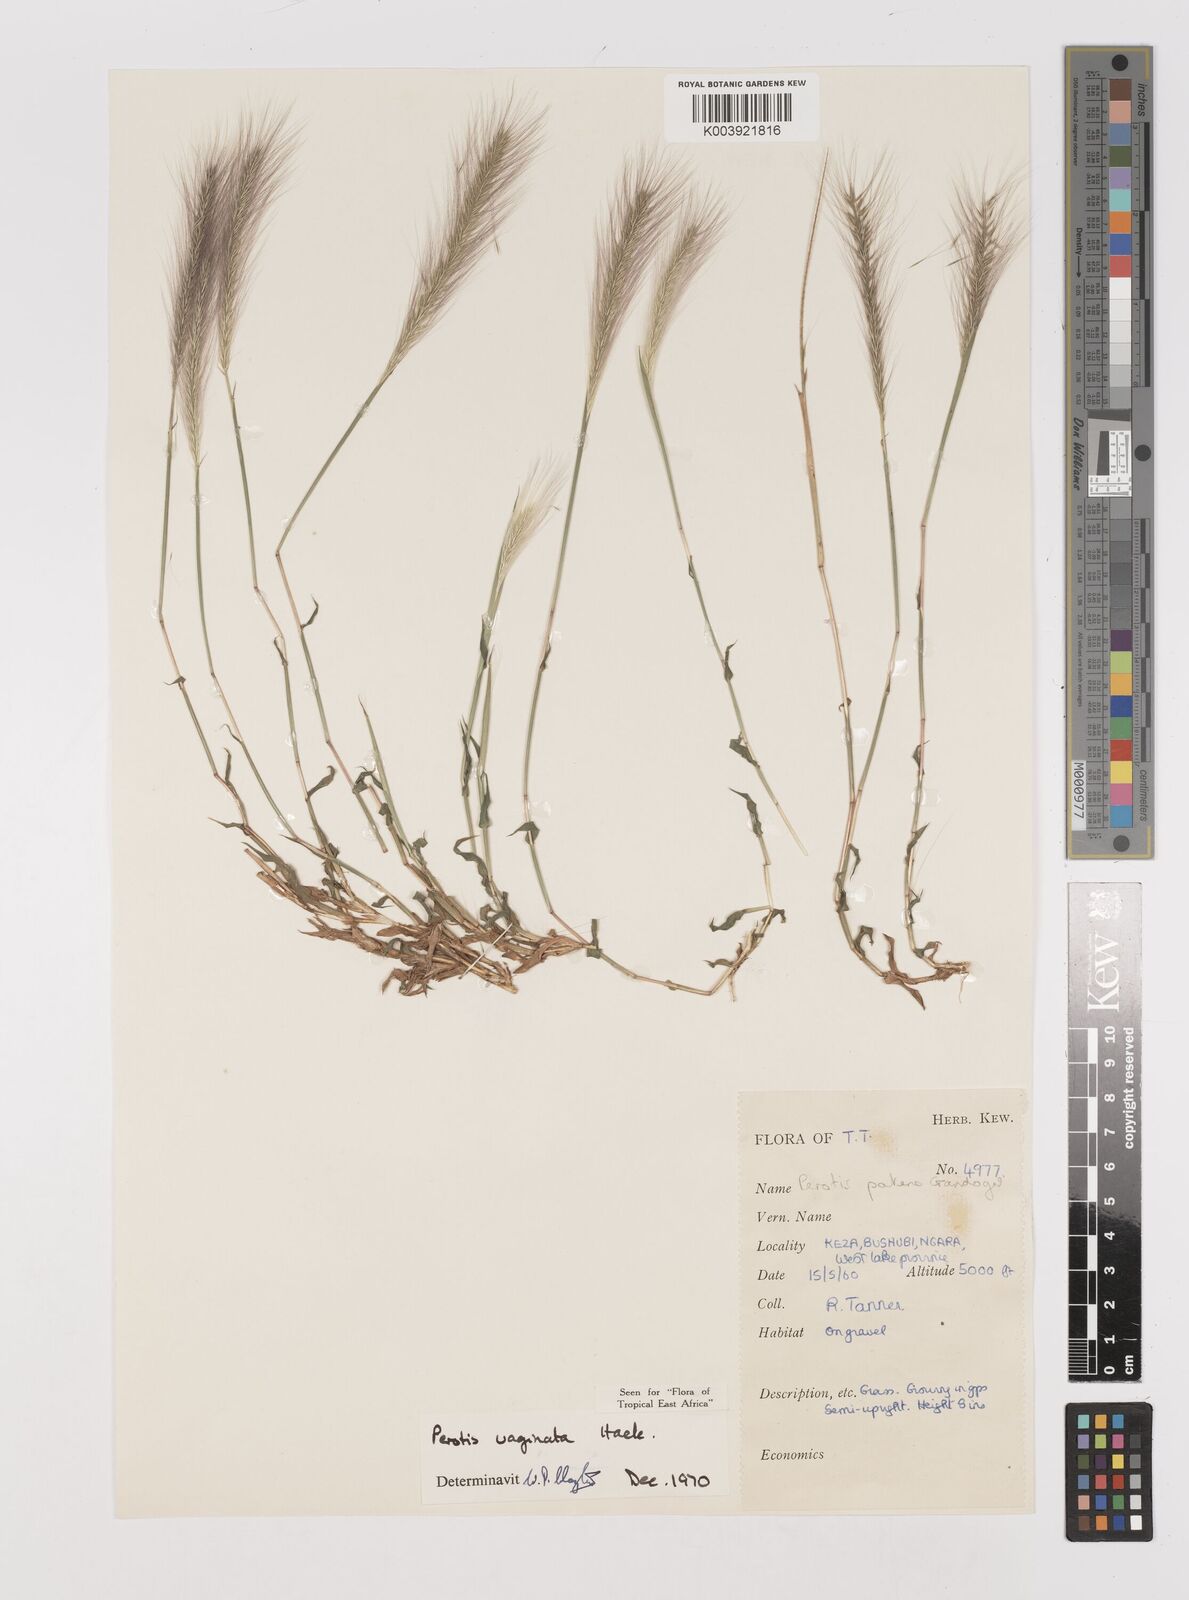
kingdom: Plantae
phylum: Tracheophyta
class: Liliopsida
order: Poales
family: Poaceae
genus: Perotis
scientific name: Perotis vaginata
